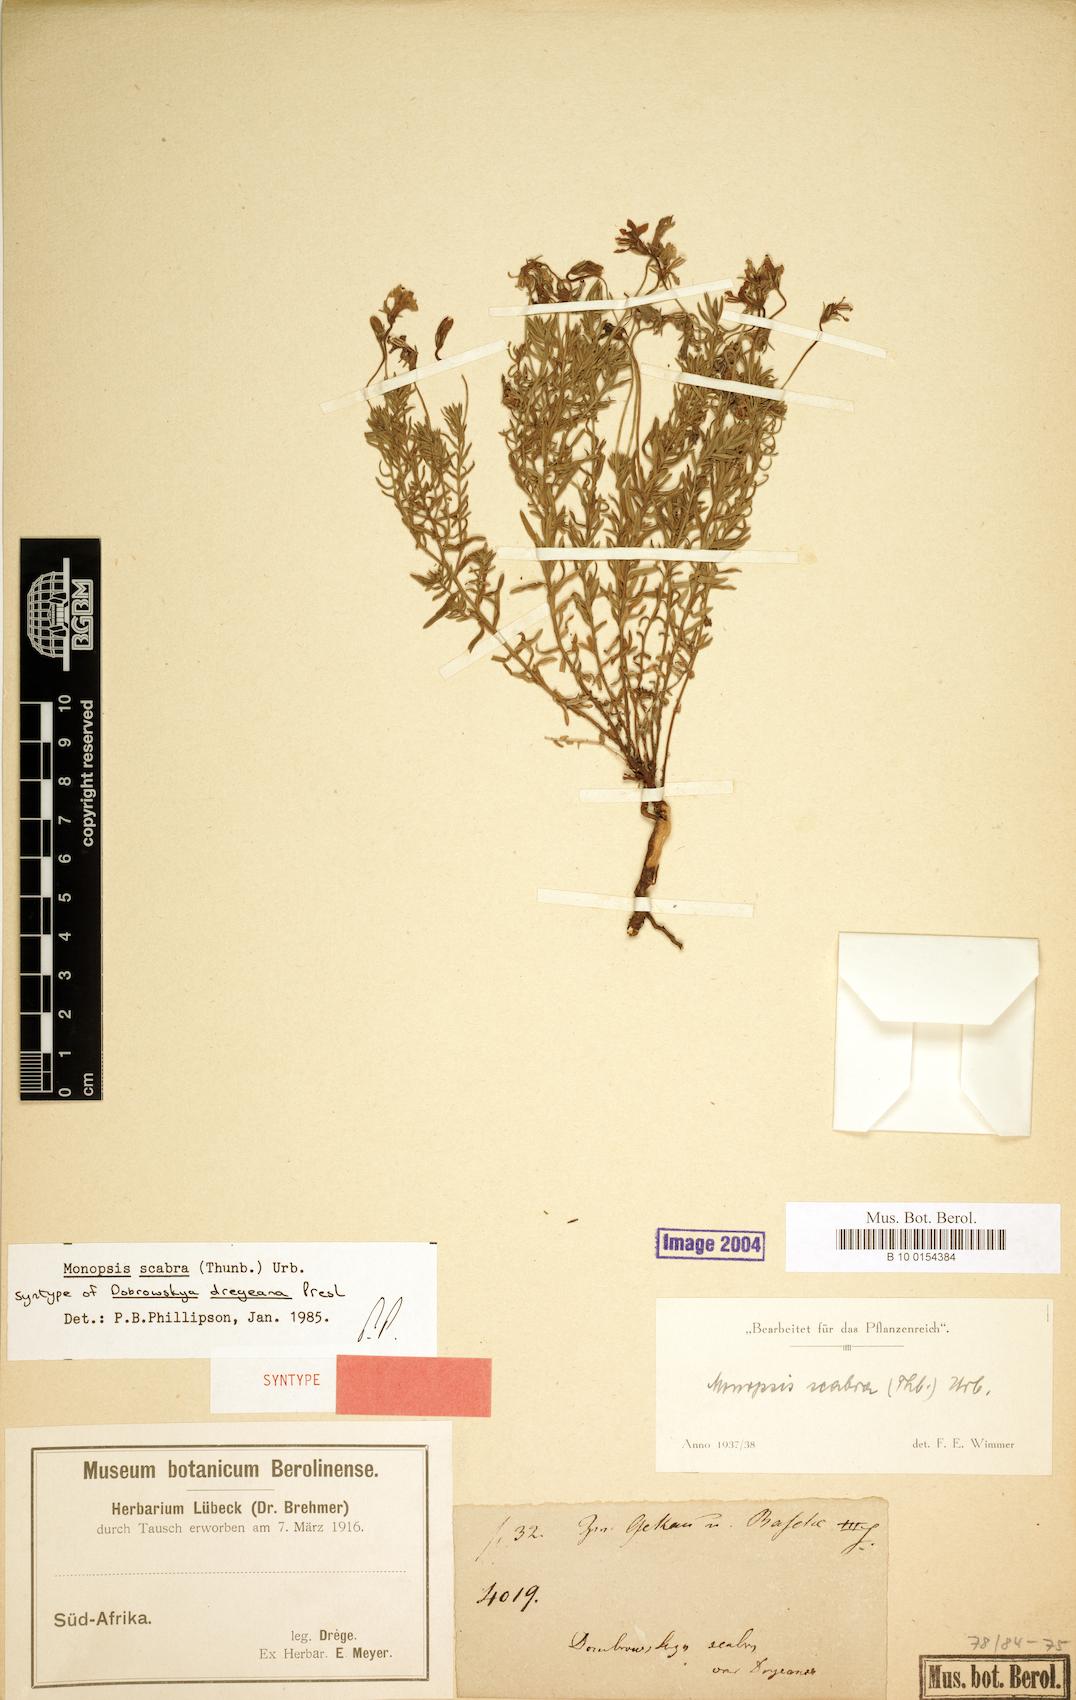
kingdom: Plantae
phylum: Tracheophyta
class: Magnoliopsida
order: Asterales
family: Campanulaceae
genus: Monopsis
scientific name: Monopsis scabra
